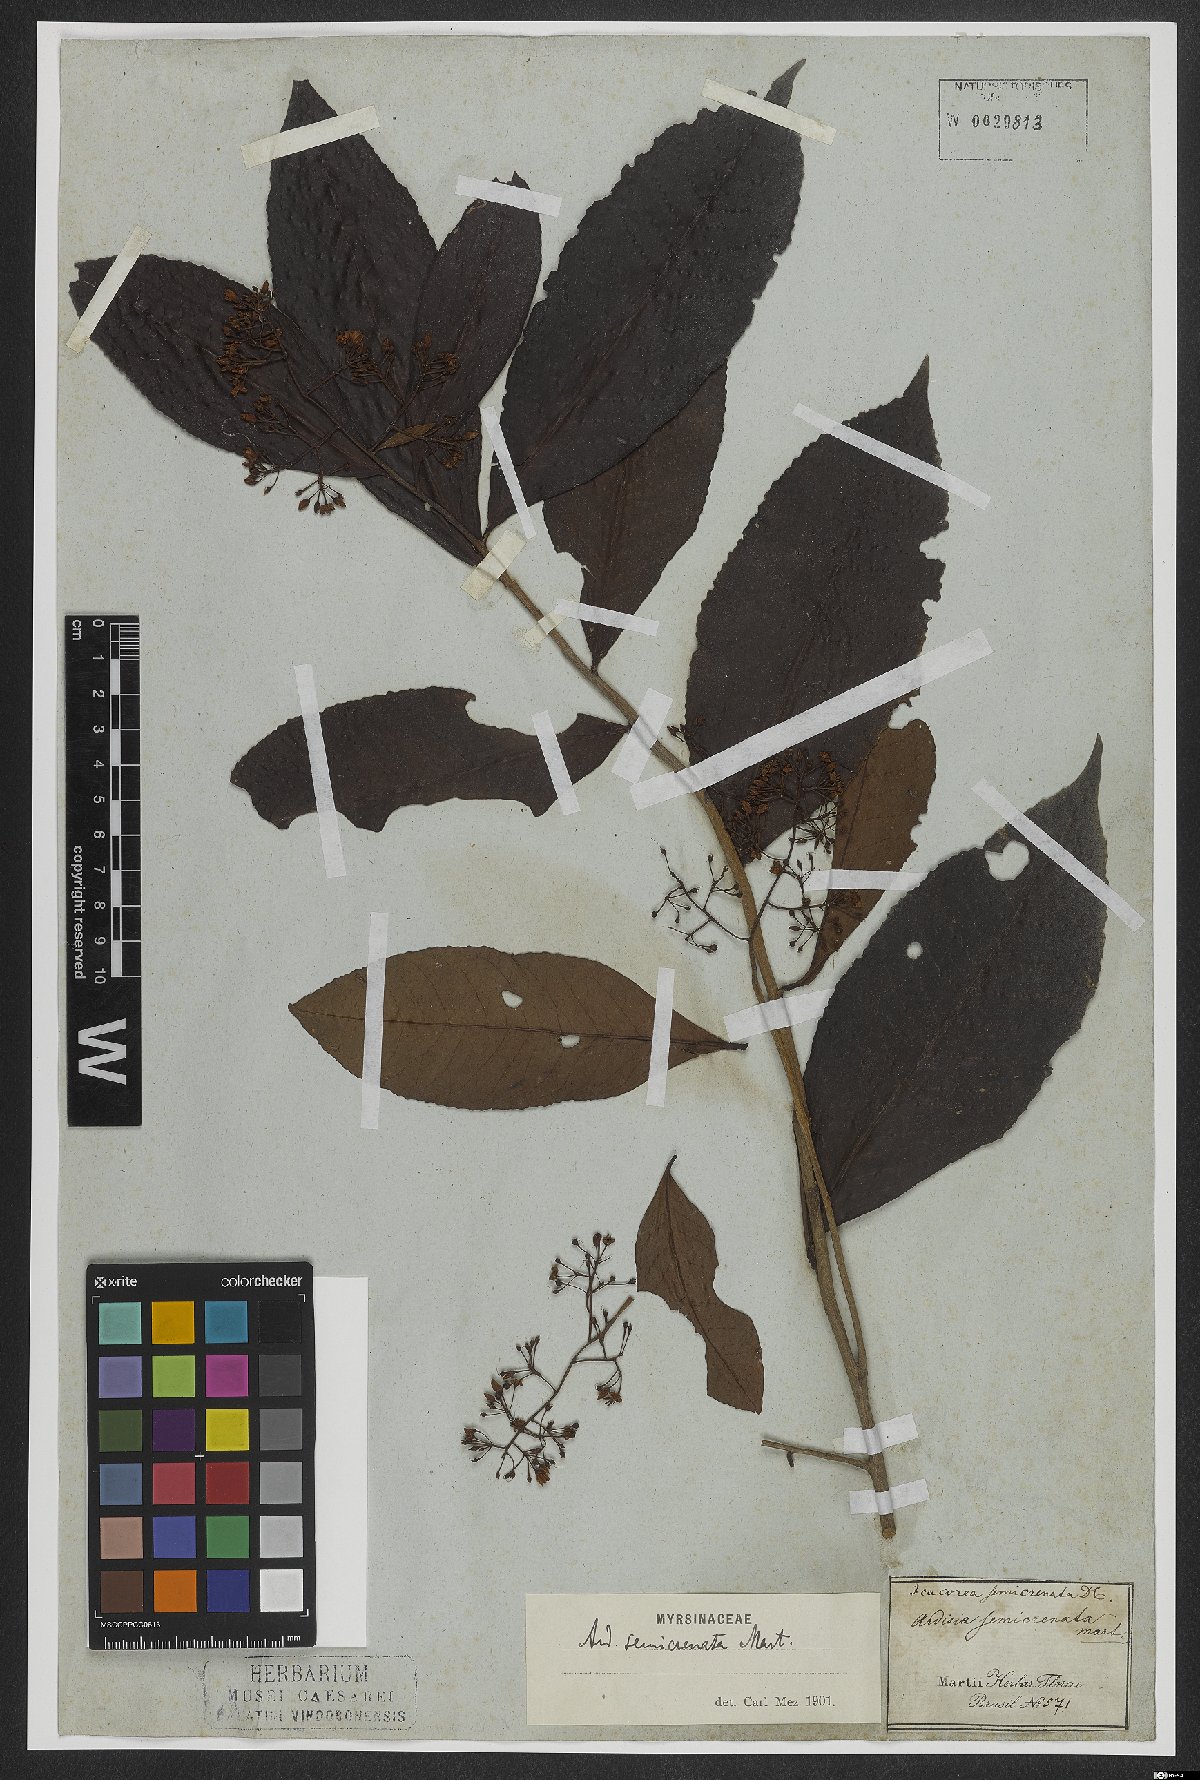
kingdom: Plantae
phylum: Tracheophyta
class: Magnoliopsida
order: Ericales
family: Primulaceae
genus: Ardisia
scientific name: Ardisia guianensis
